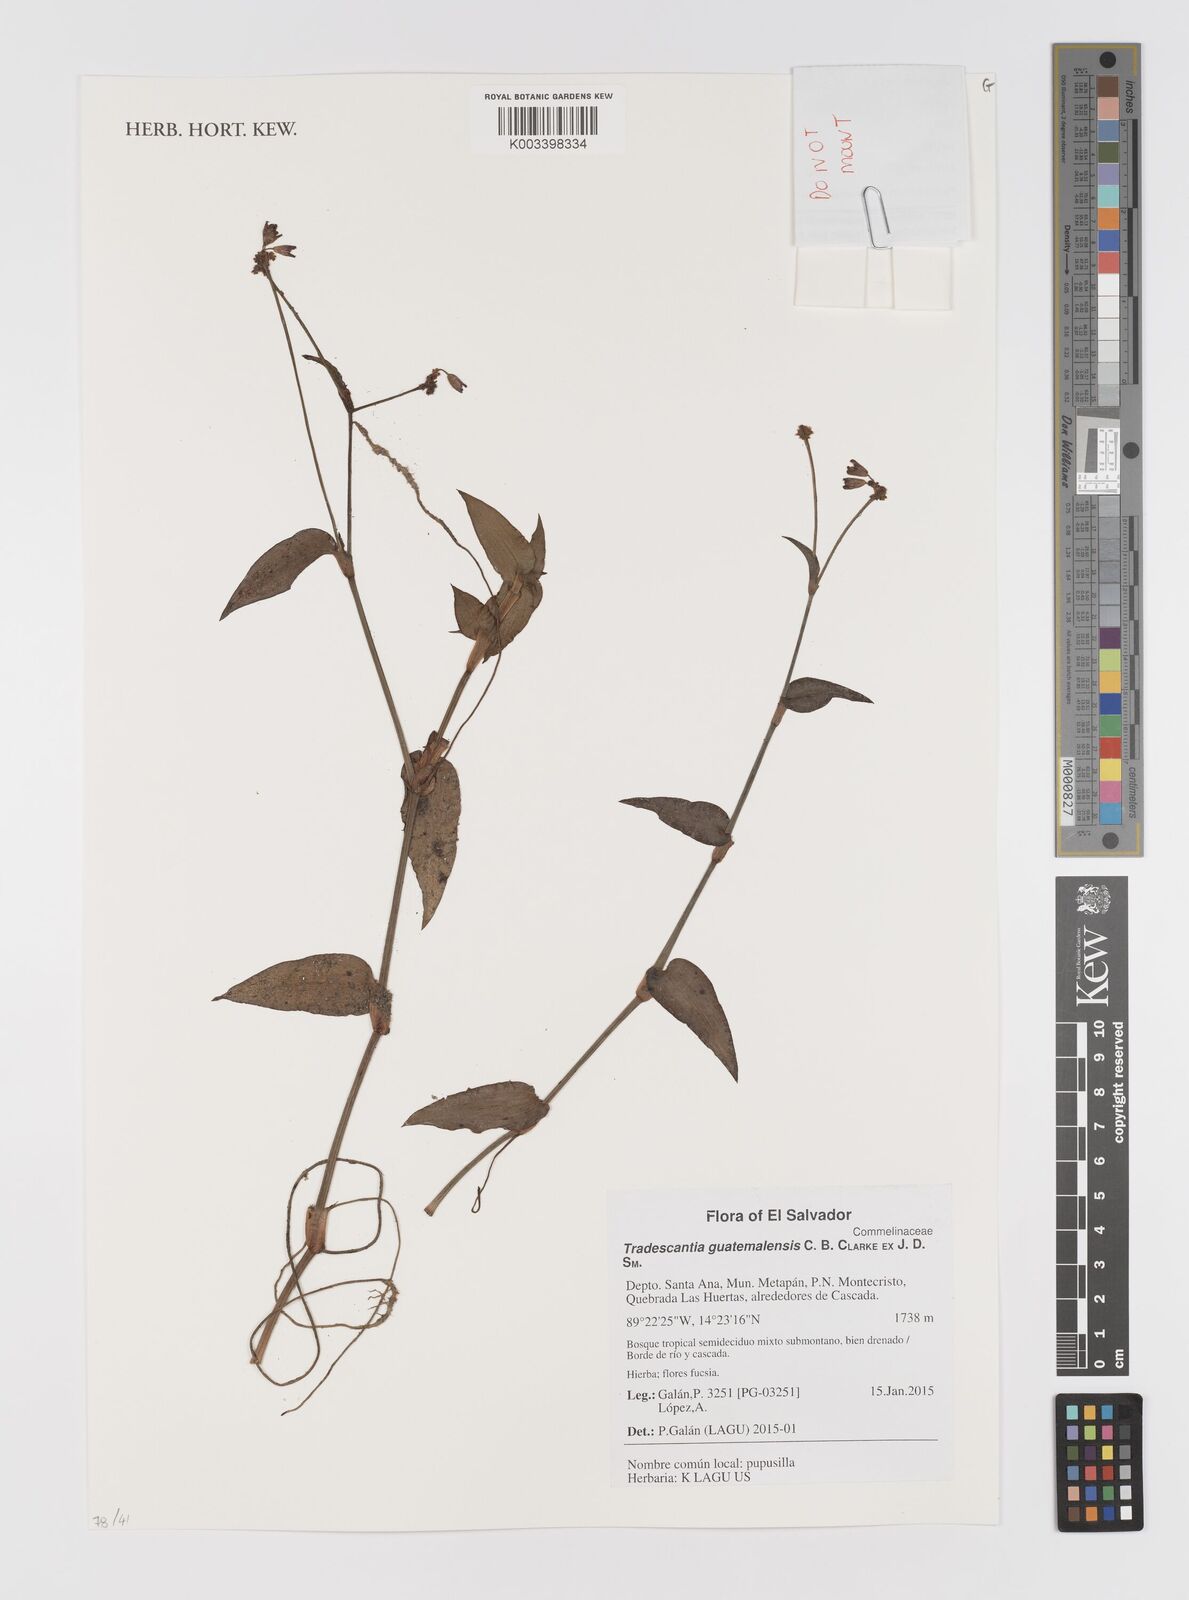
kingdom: Plantae
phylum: Tracheophyta
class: Liliopsida
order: Commelinales
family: Commelinaceae
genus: Elasis
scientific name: Elasis guatemalensis
